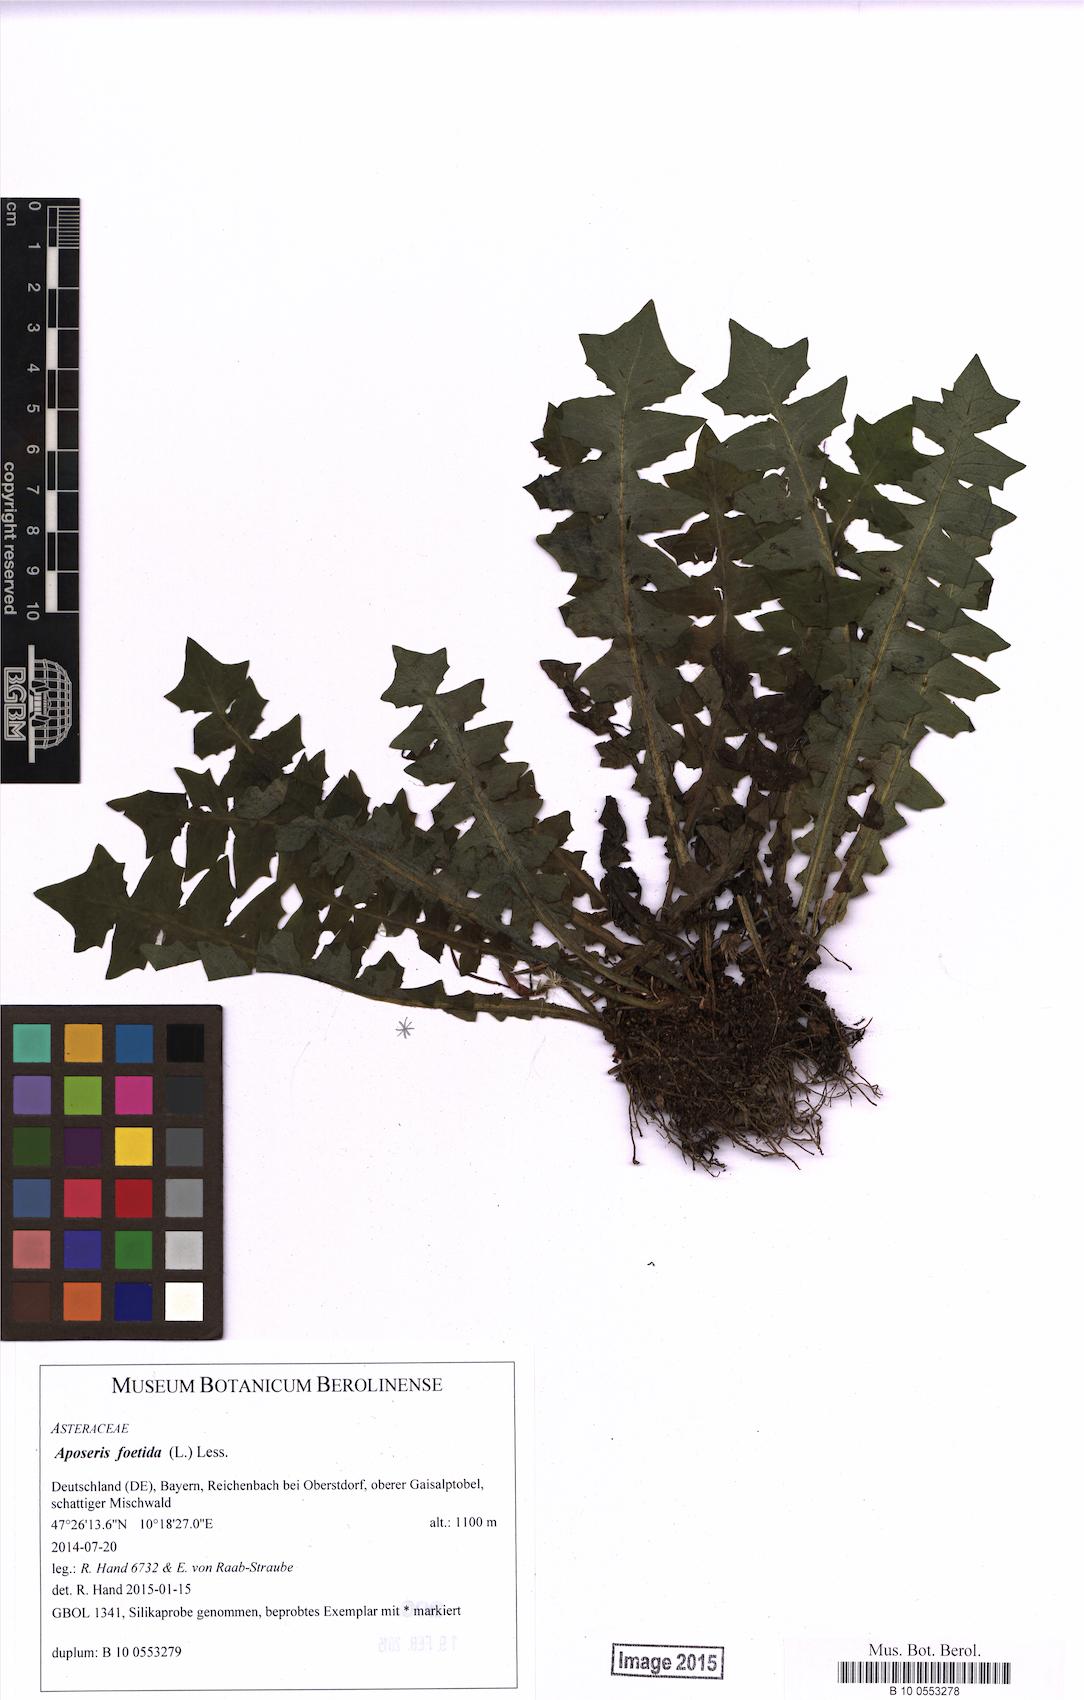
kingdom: Plantae
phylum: Tracheophyta
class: Magnoliopsida
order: Asterales
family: Asteraceae
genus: Aposeris
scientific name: Aposeris foetida
